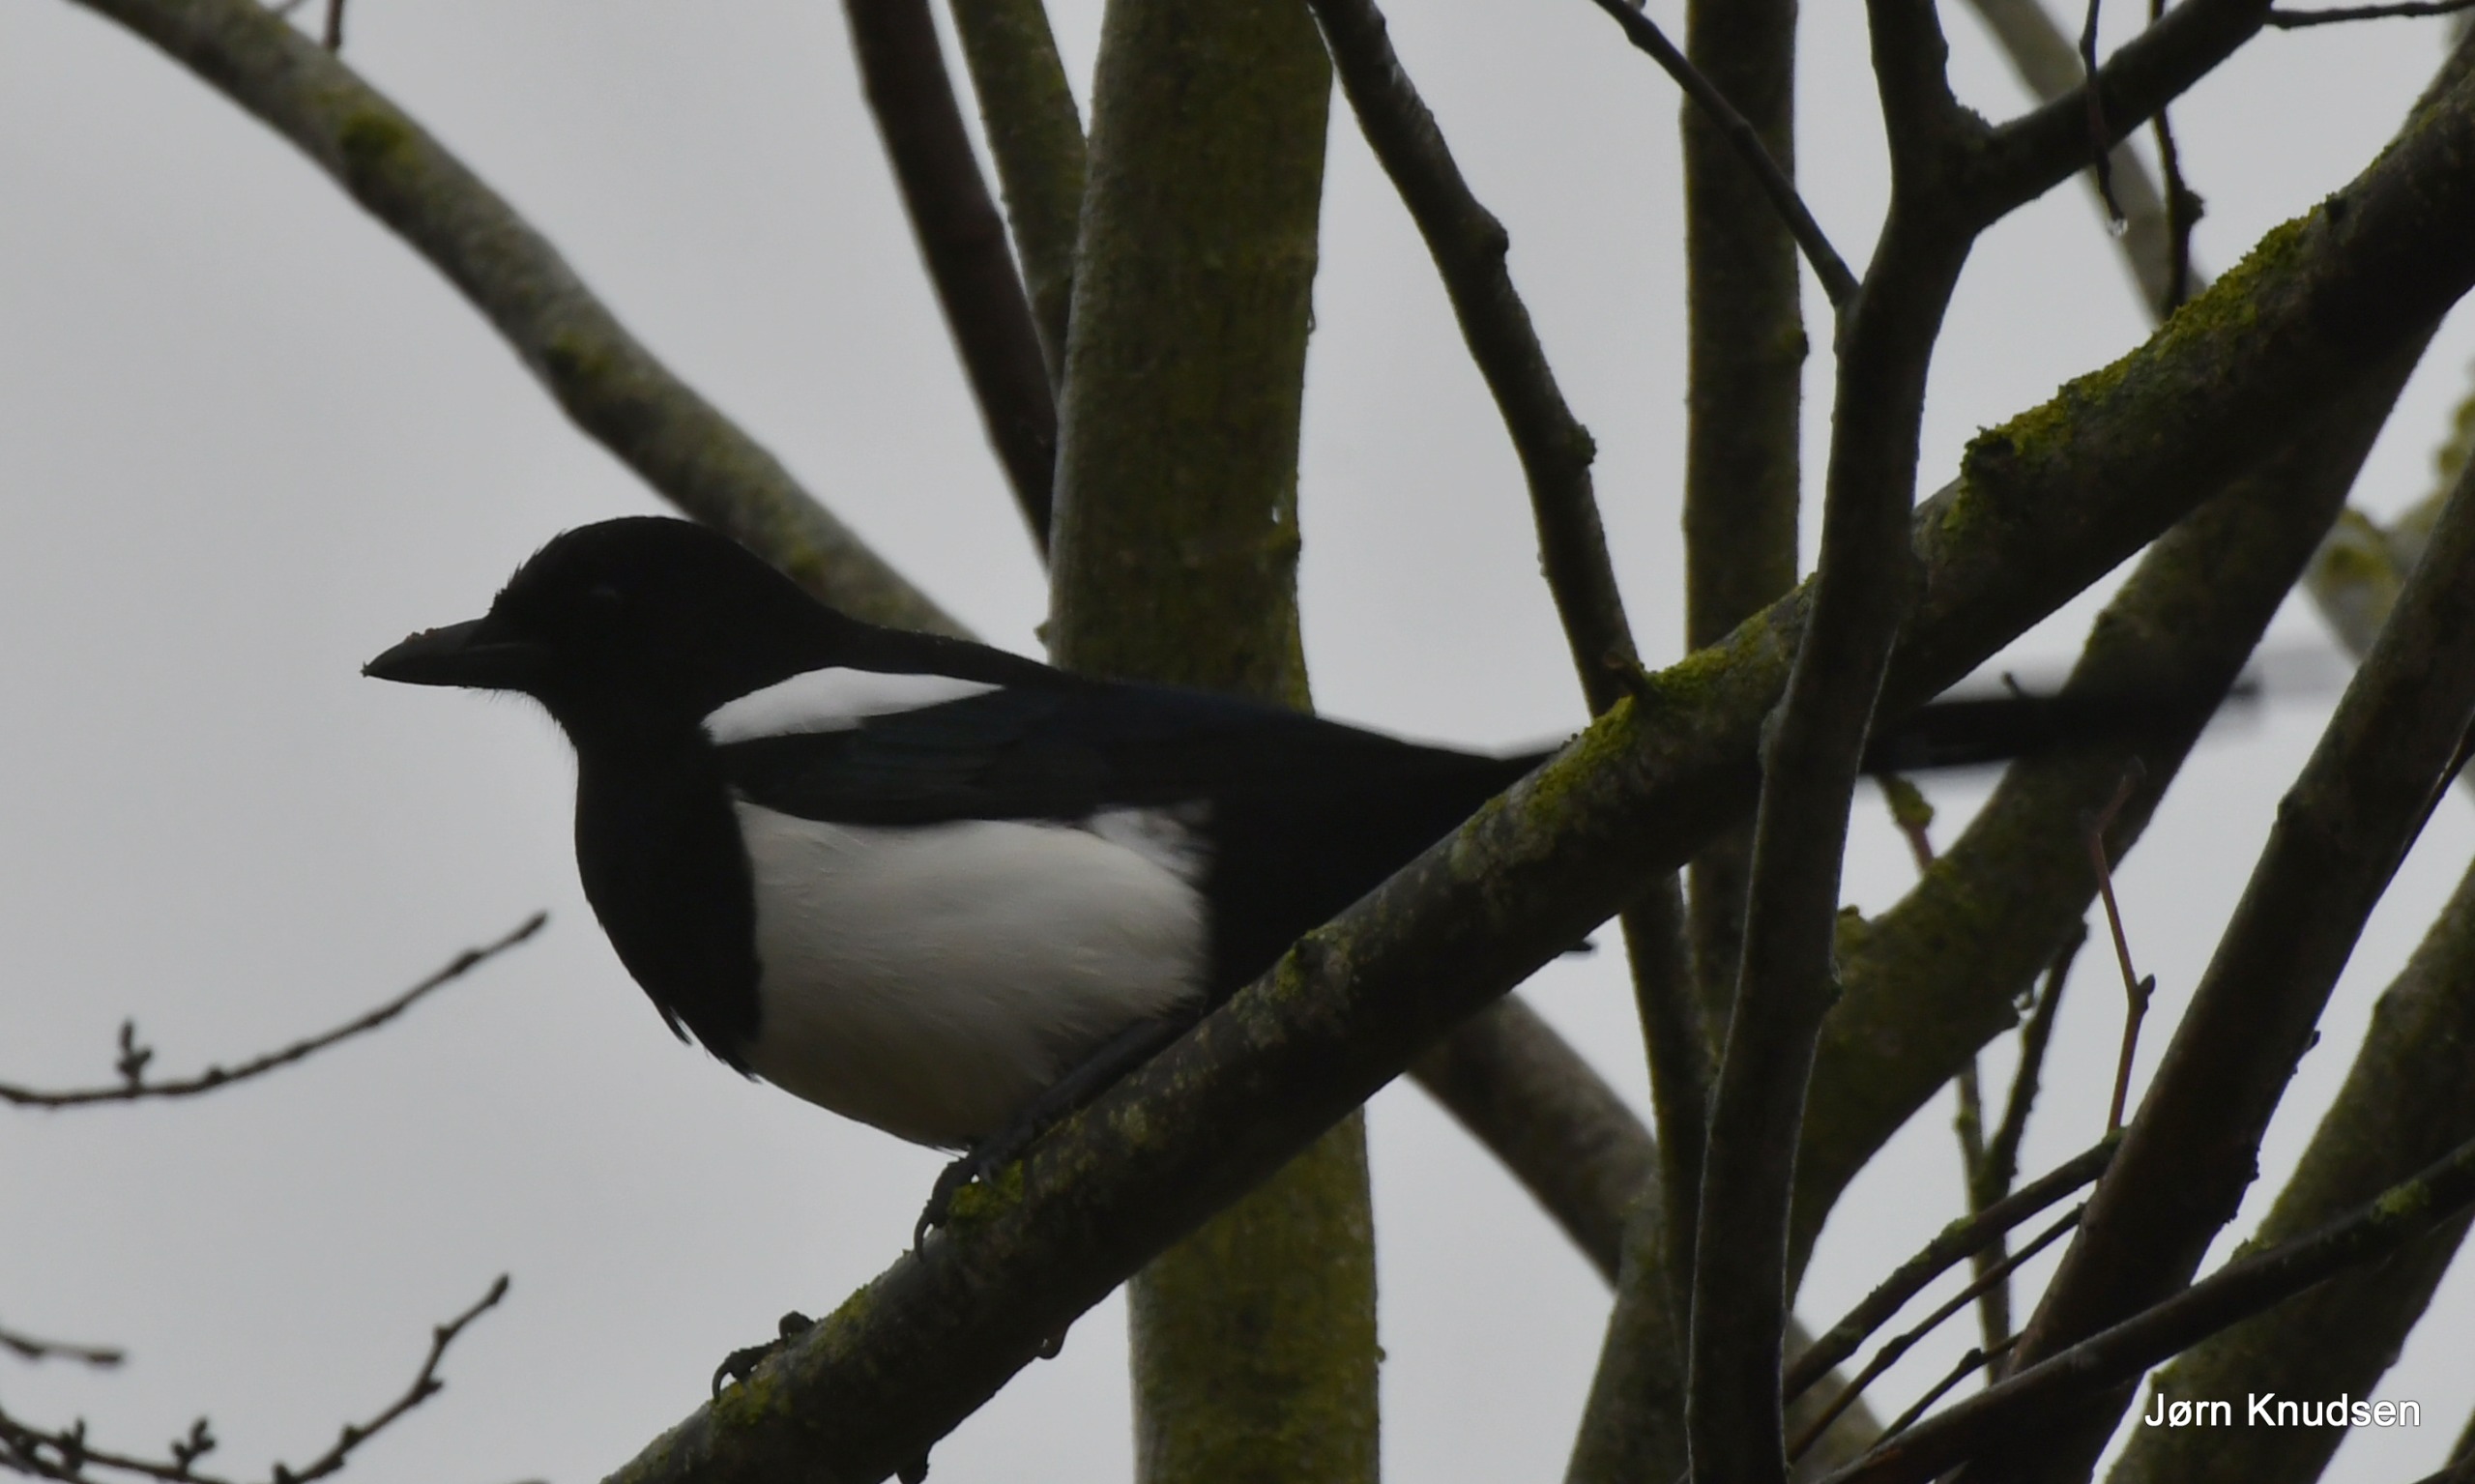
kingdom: Animalia
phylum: Chordata
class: Aves
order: Passeriformes
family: Corvidae
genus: Pica
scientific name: Pica pica
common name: Husskade
